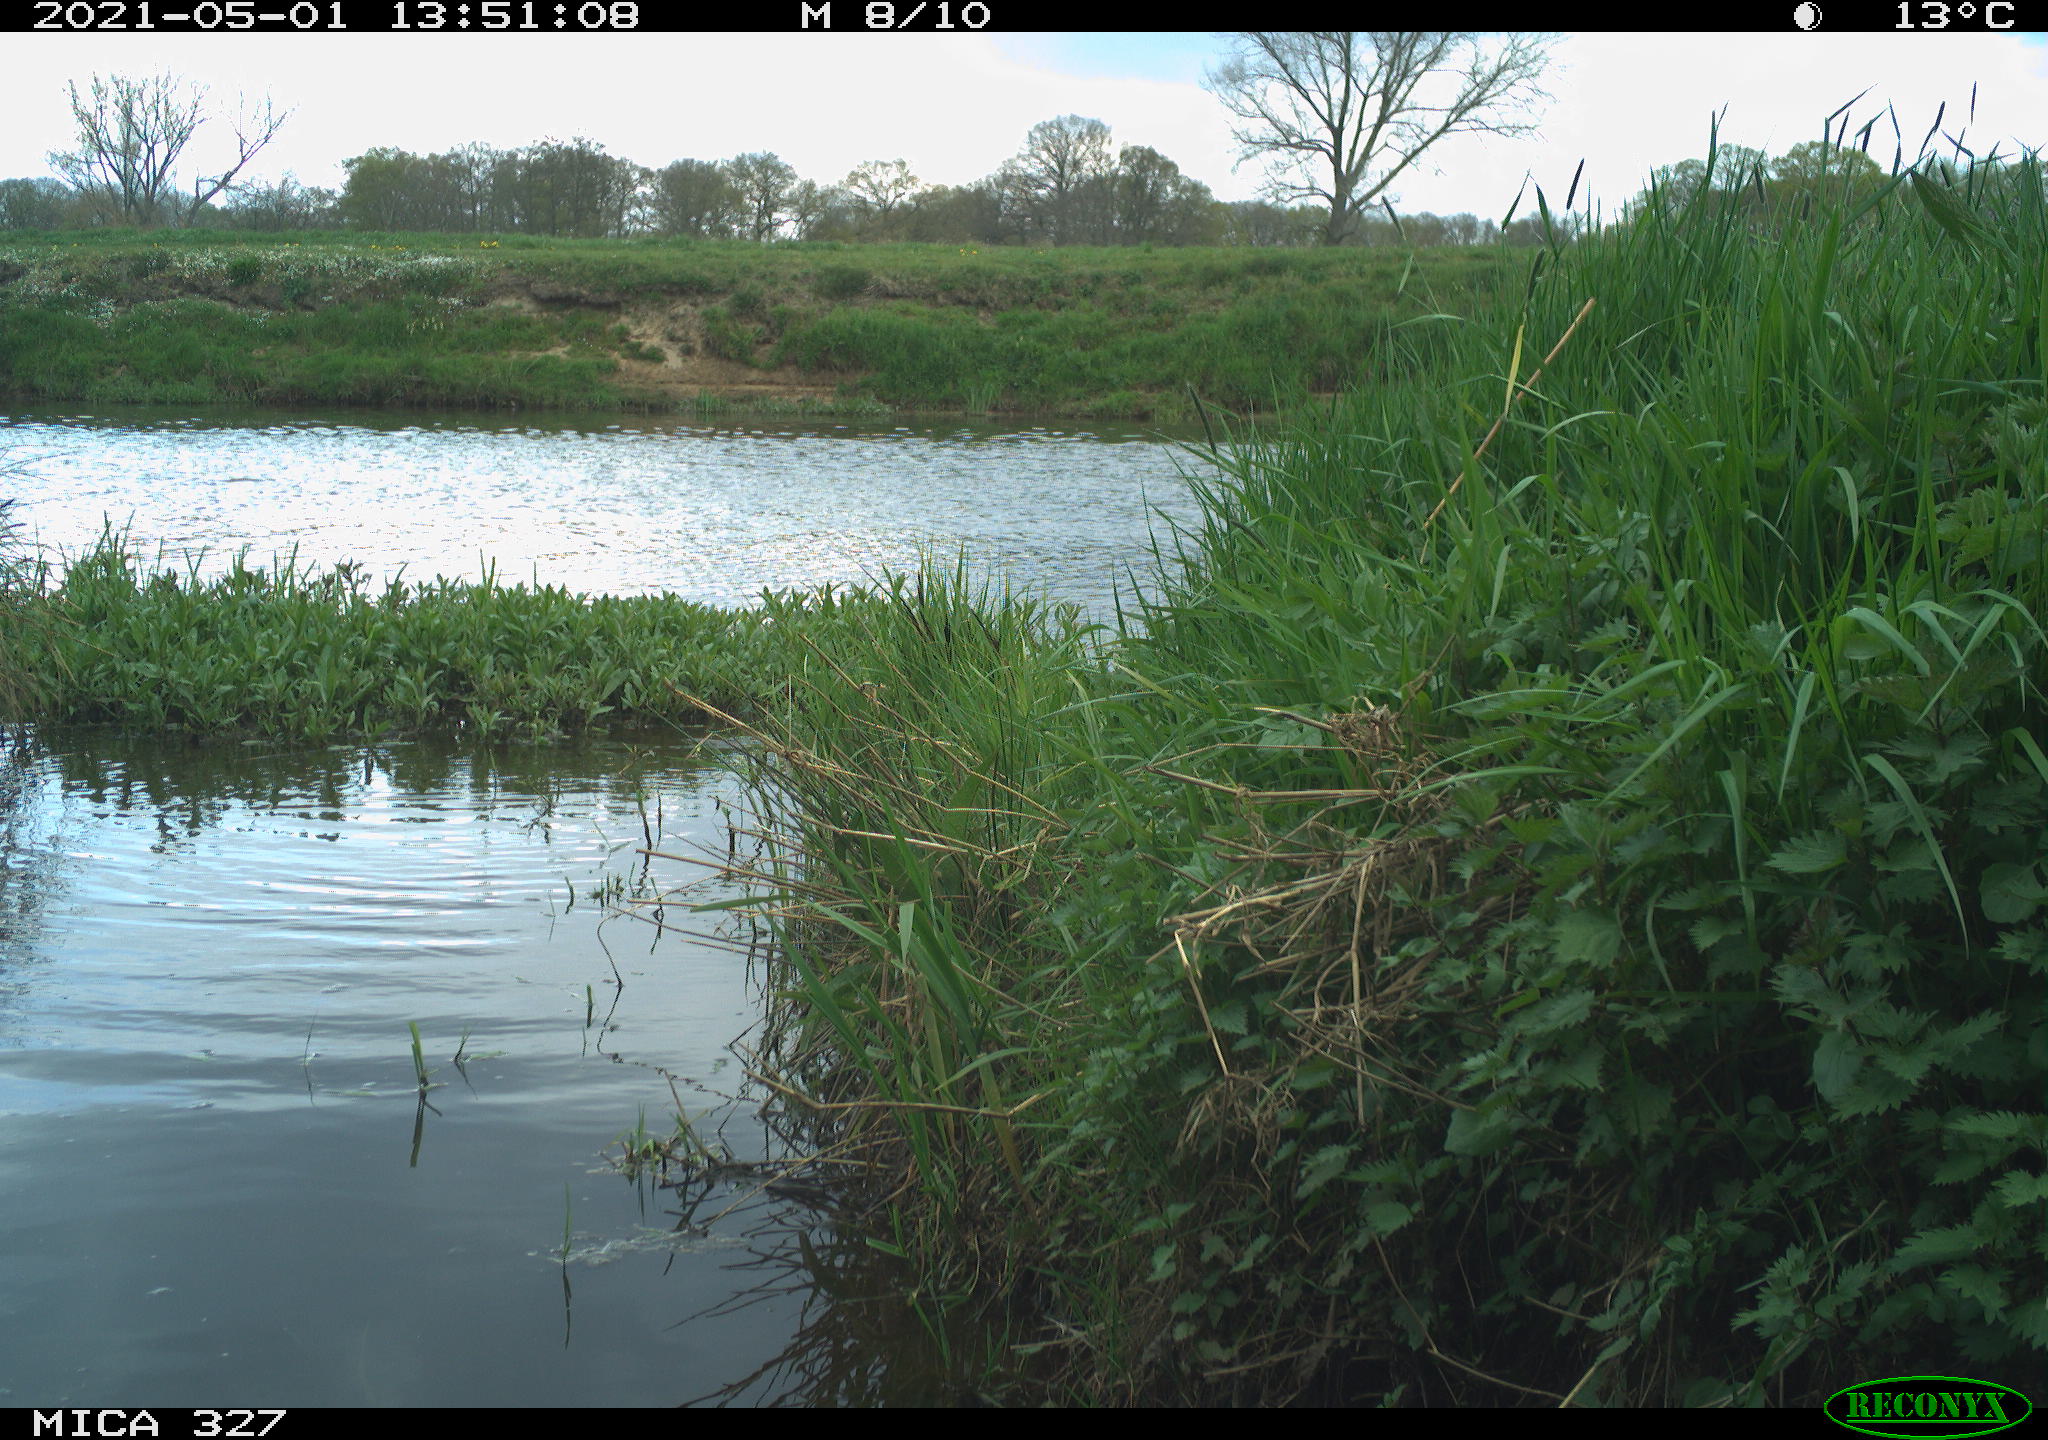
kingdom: Animalia
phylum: Chordata
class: Aves
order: Gruiformes
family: Rallidae
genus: Fulica
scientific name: Fulica atra
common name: Eurasian coot
